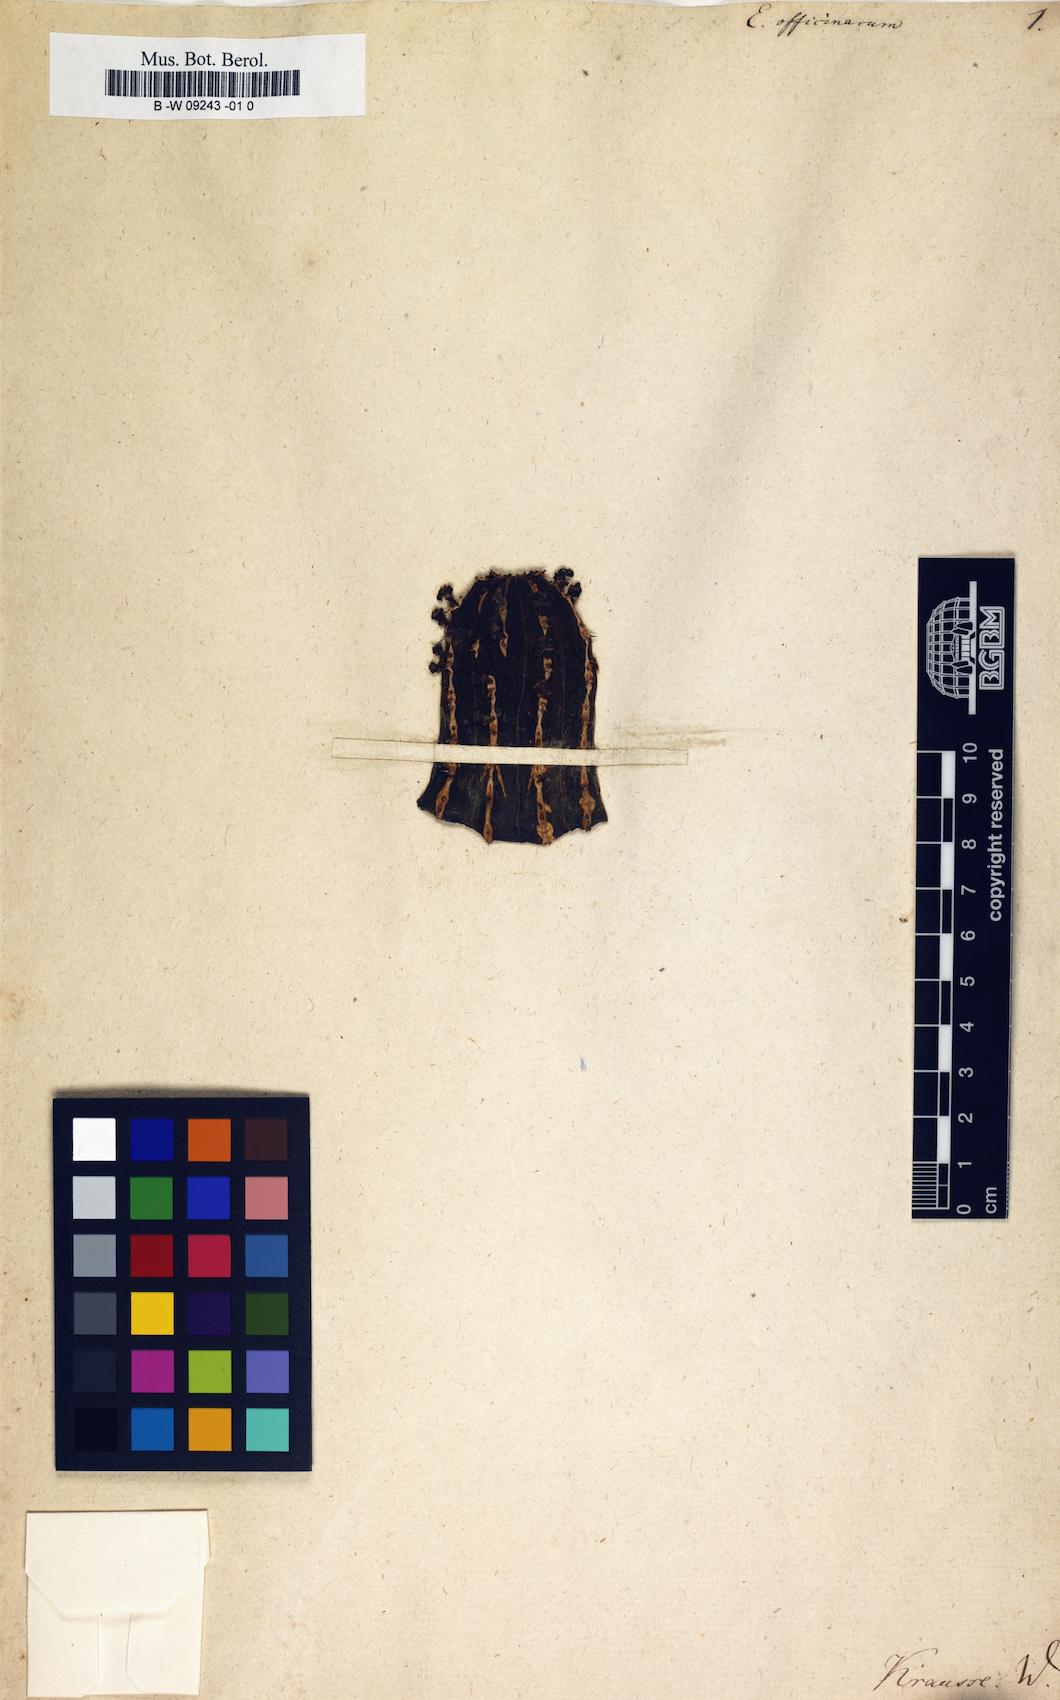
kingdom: Plantae
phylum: Tracheophyta
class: Magnoliopsida
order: Malpighiales
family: Euphorbiaceae
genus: Euphorbia
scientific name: Euphorbia officinarum
